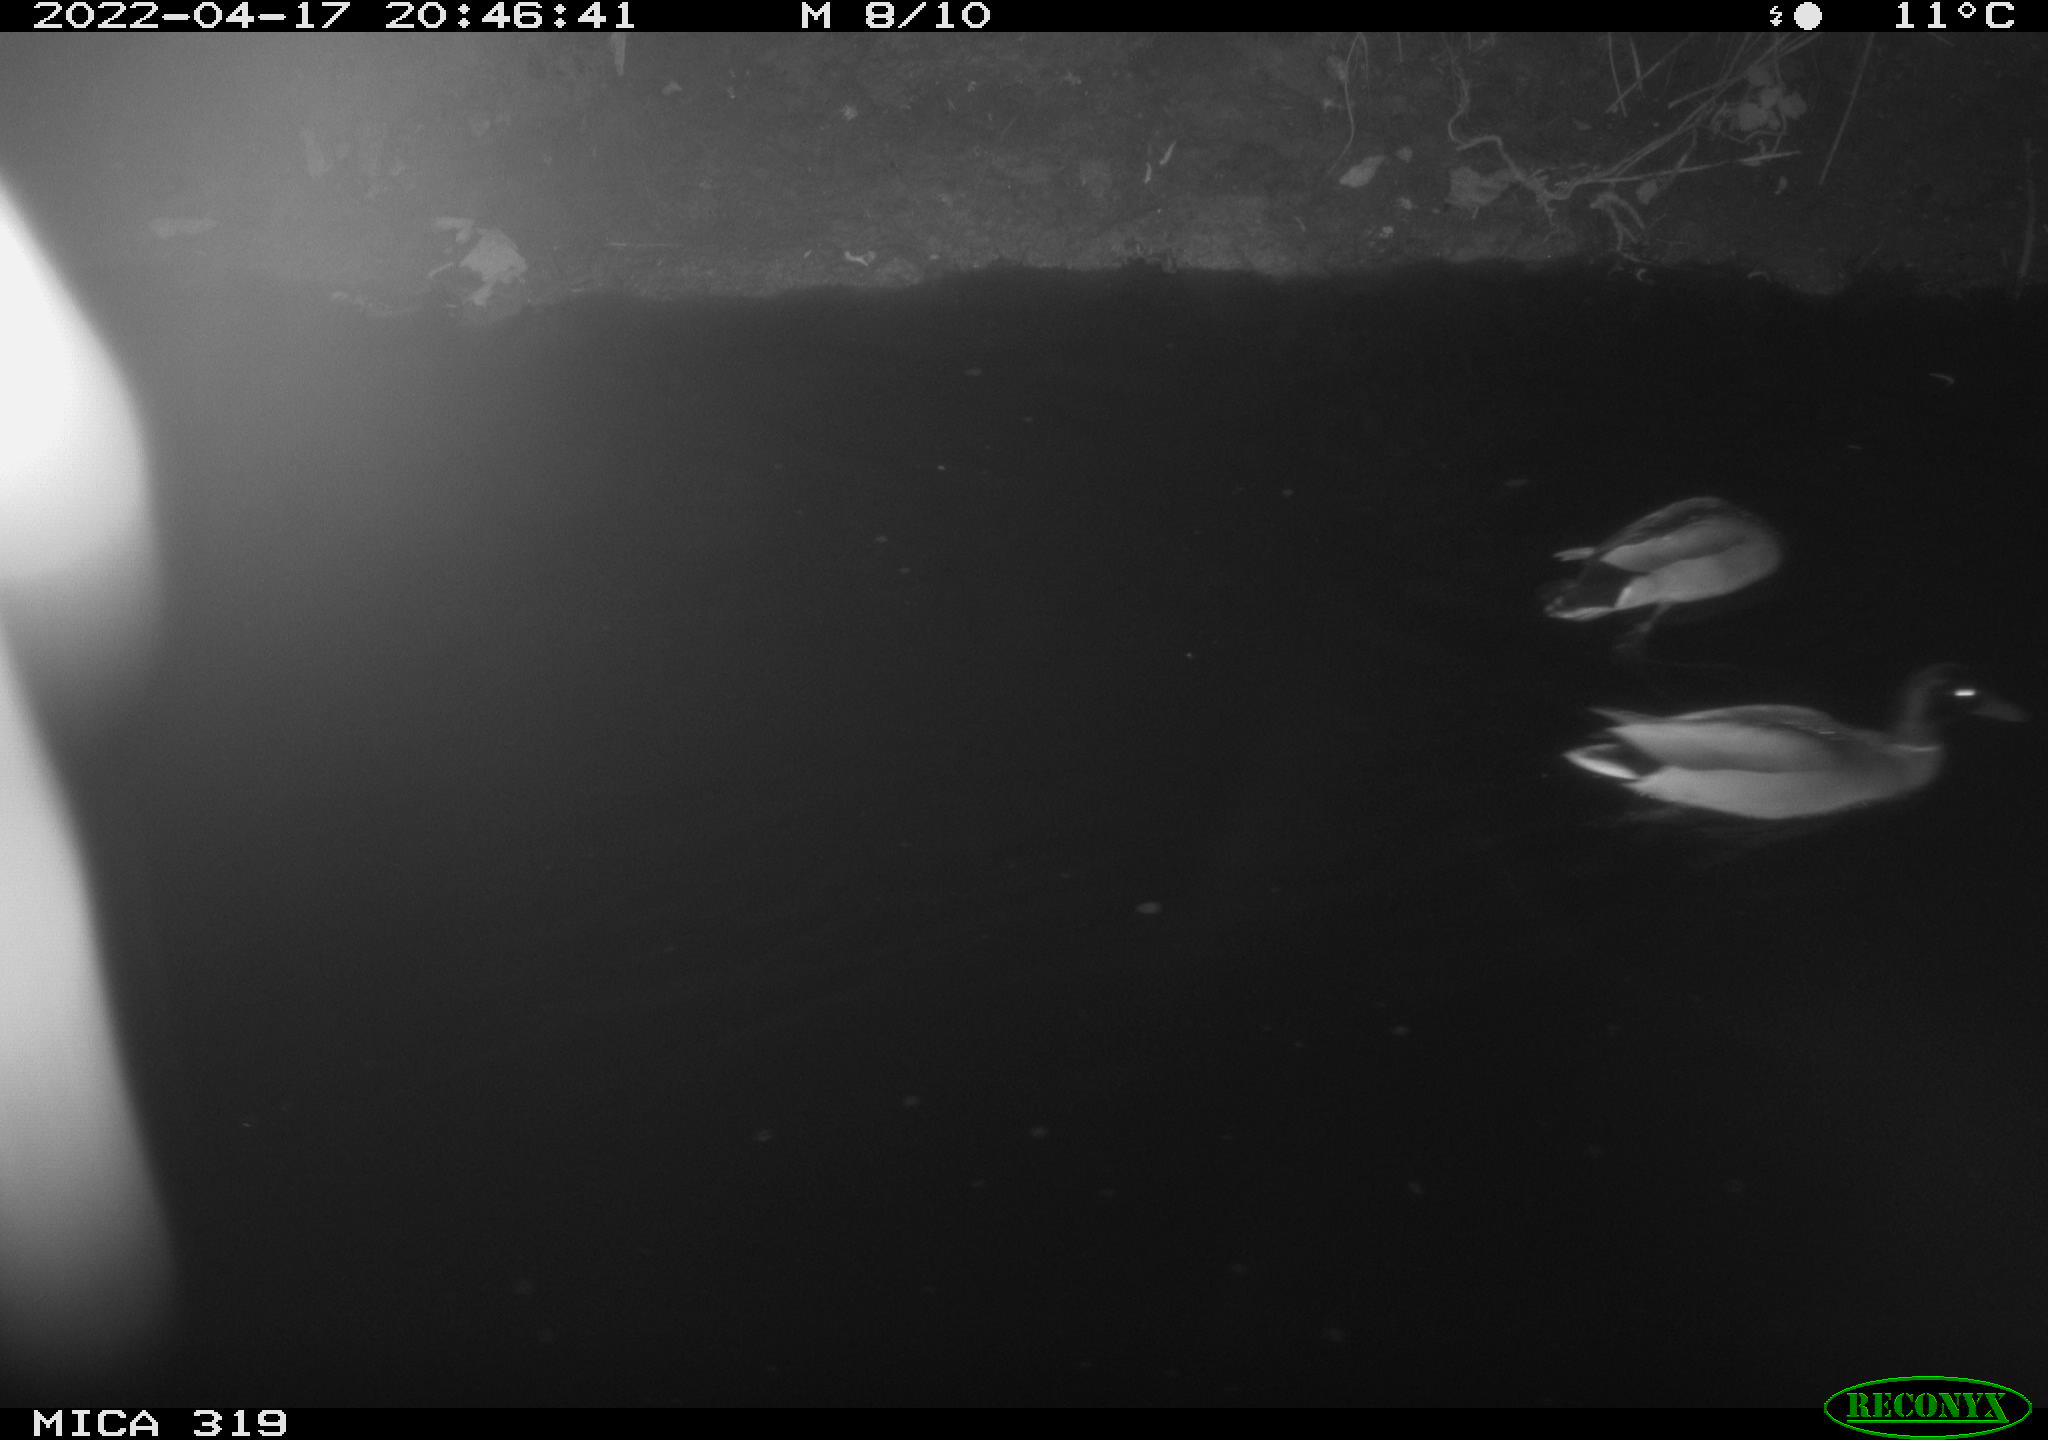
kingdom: Animalia
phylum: Chordata
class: Aves
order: Anseriformes
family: Anatidae
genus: Anas
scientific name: Anas platyrhynchos
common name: Mallard
